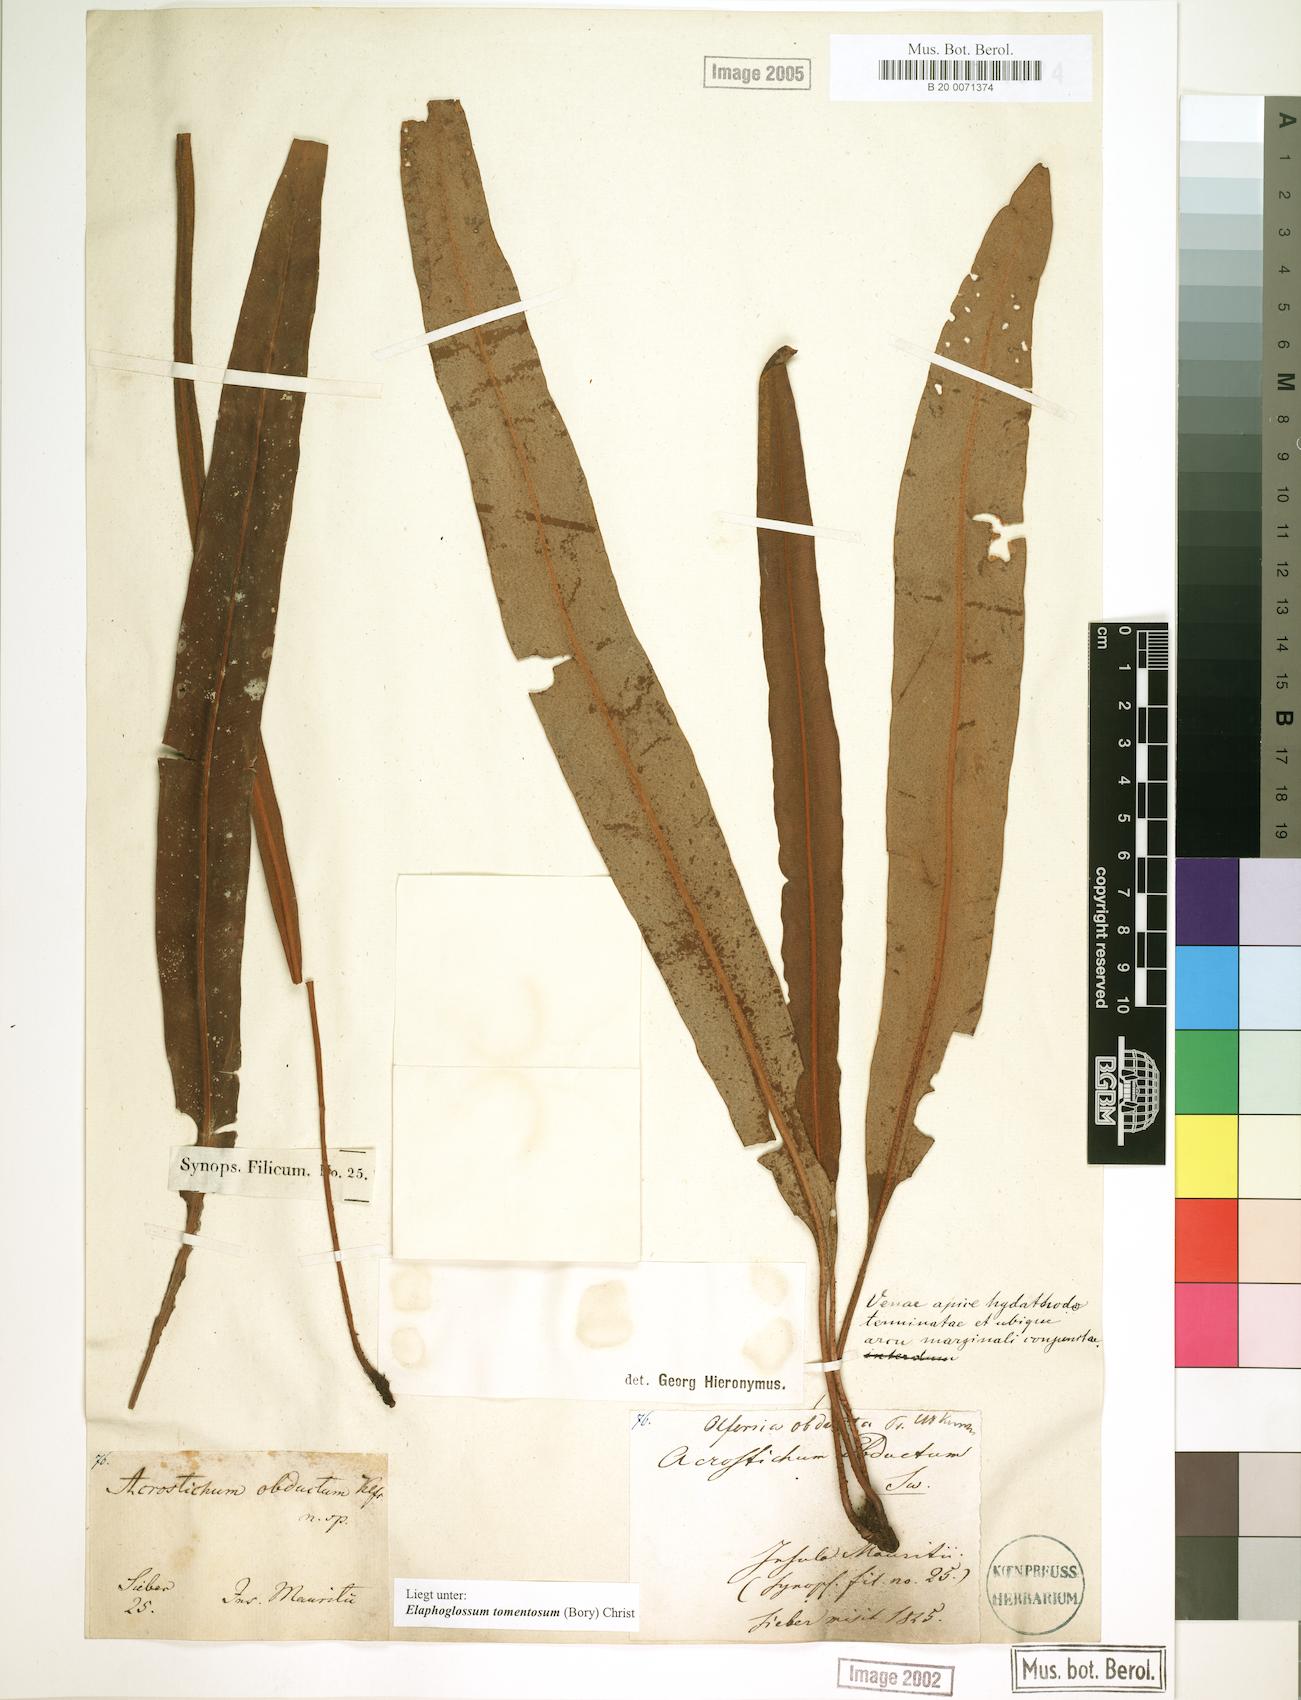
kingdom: Plantae
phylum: Tracheophyta
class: Polypodiopsida
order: Polypodiales
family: Dryopteridaceae
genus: Elaphoglossum
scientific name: Elaphoglossum tomentosum
